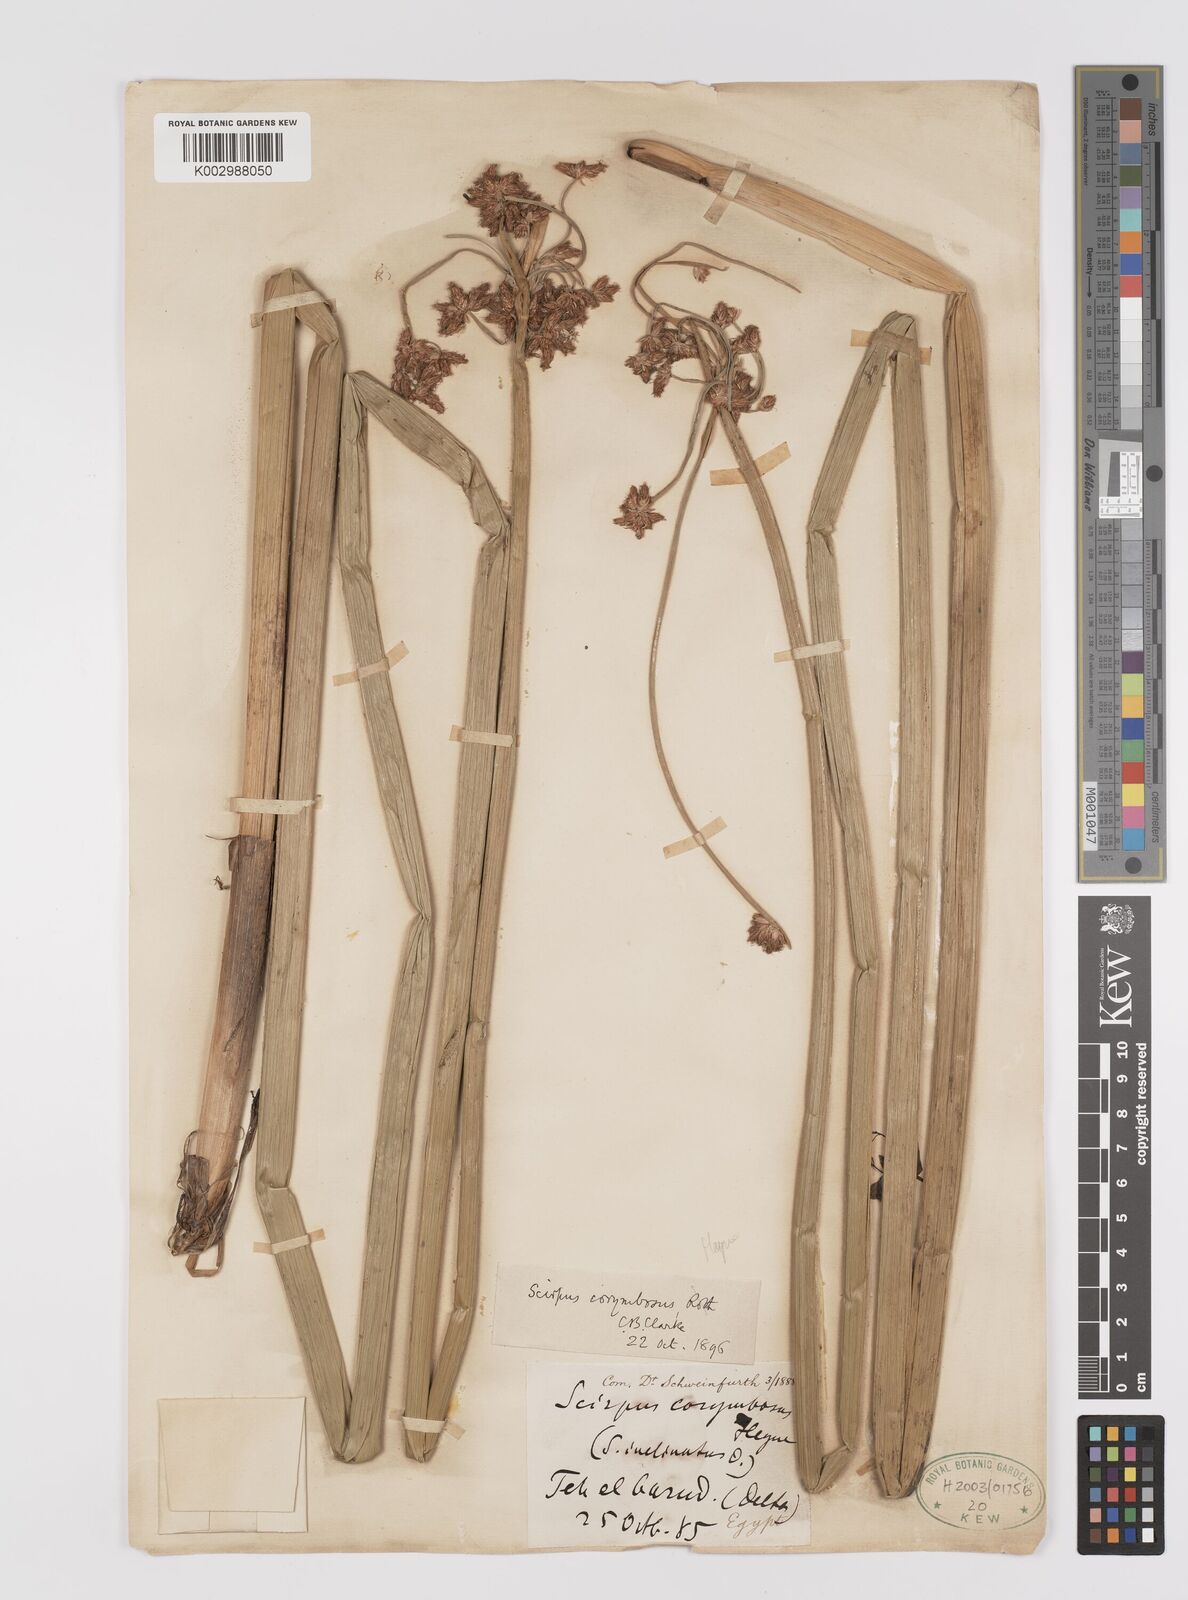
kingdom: Plantae
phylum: Tracheophyta
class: Liliopsida
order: Poales
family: Cyperaceae
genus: Schoenoplectiella
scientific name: Schoenoplectiella corymbosa
